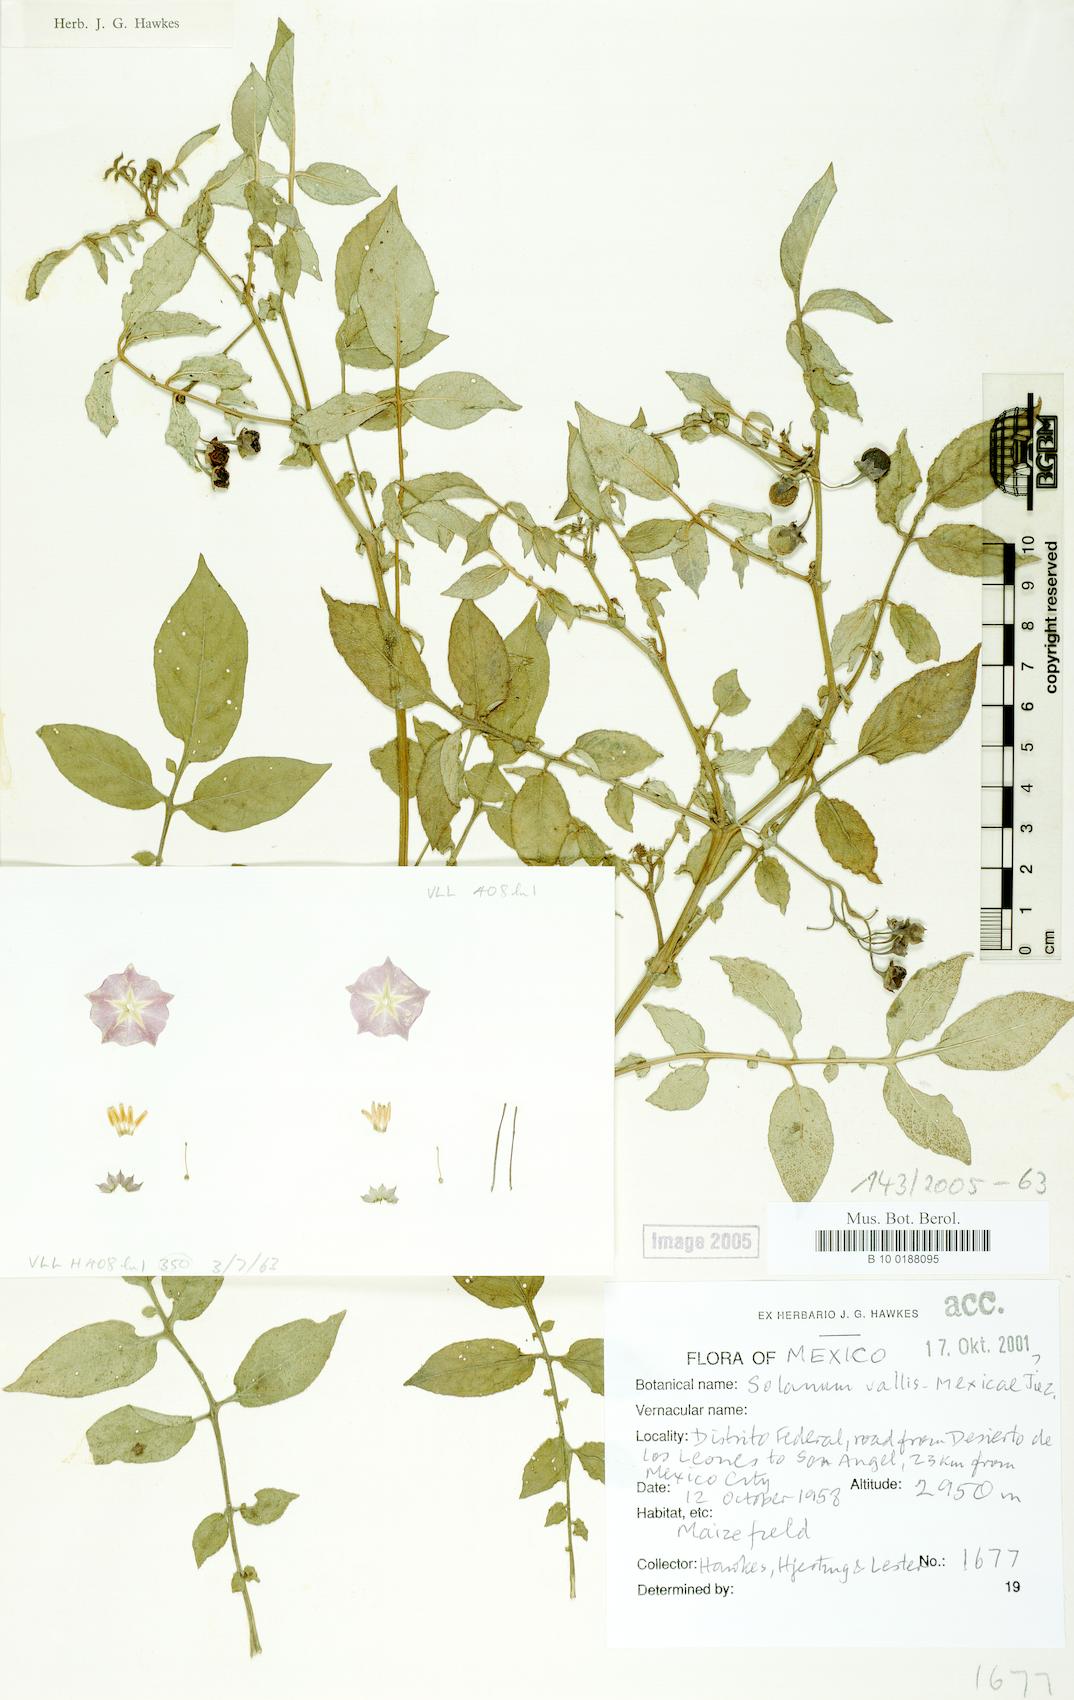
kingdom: Plantae
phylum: Tracheophyta
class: Magnoliopsida
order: Solanales
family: Solanaceae
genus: Solanum
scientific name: Solanum vallis-mexici
